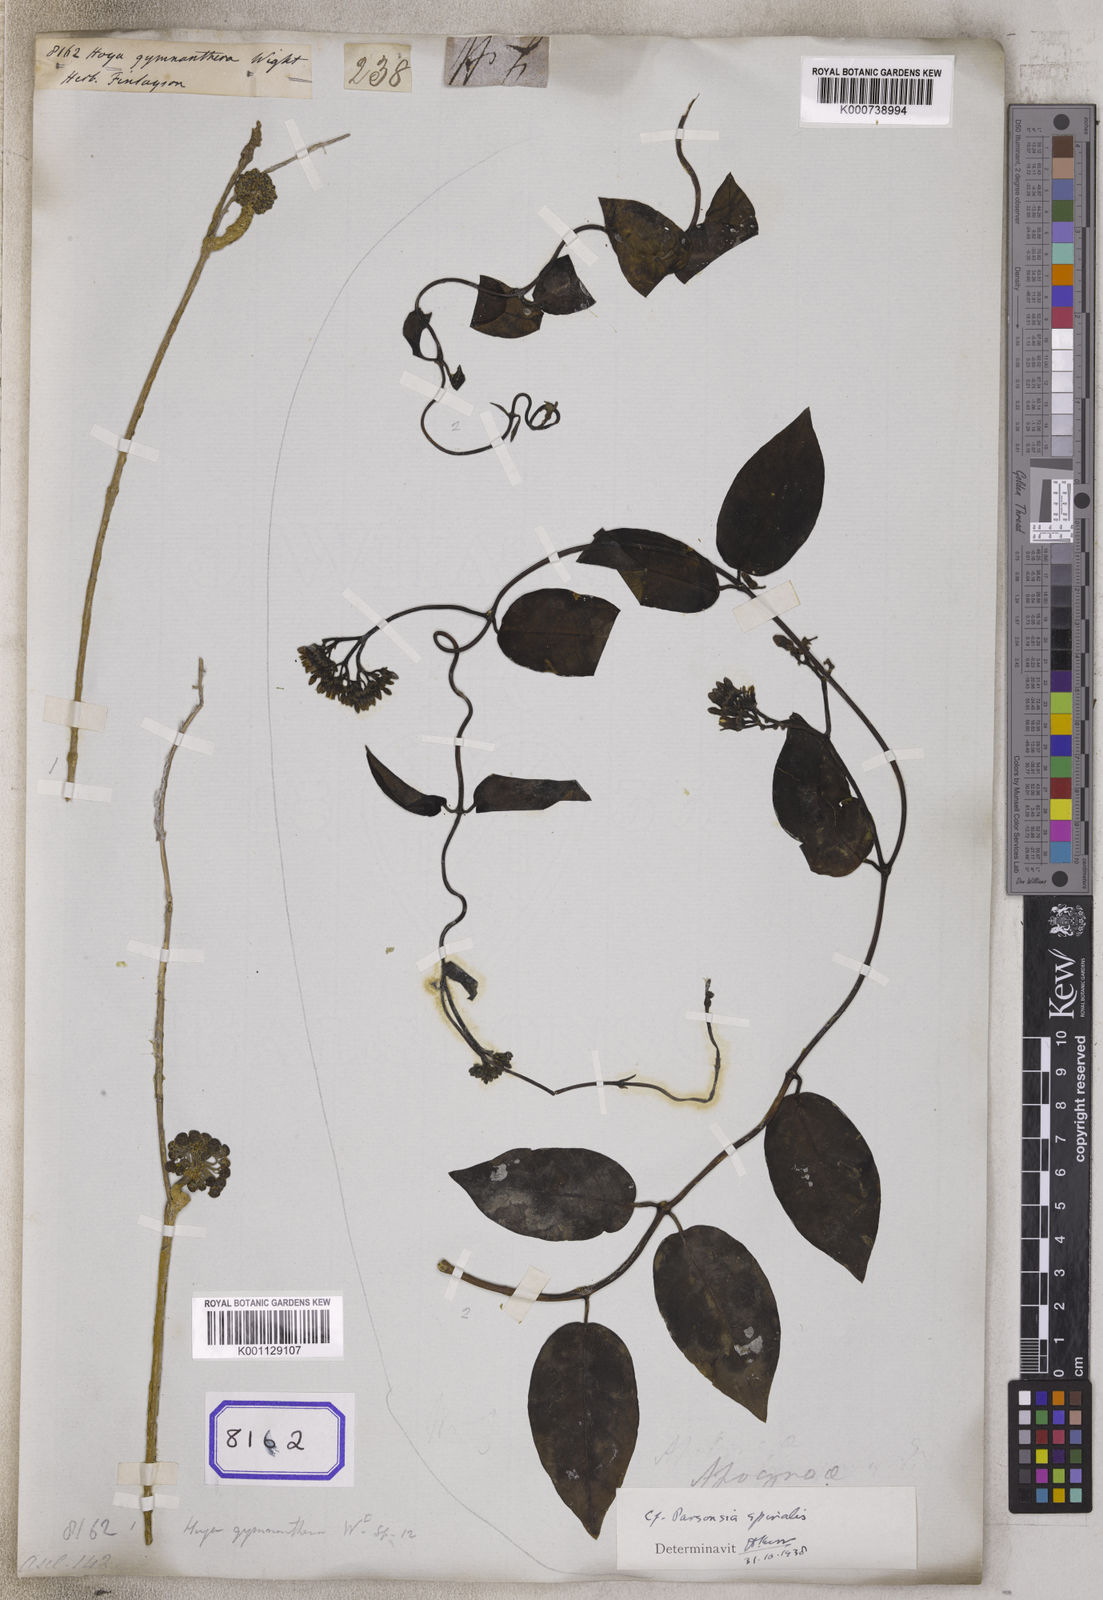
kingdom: Plantae
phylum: Tracheophyta
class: Magnoliopsida
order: Gentianales
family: Apocynaceae
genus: Hoya
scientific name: Hoya gymnanthera
